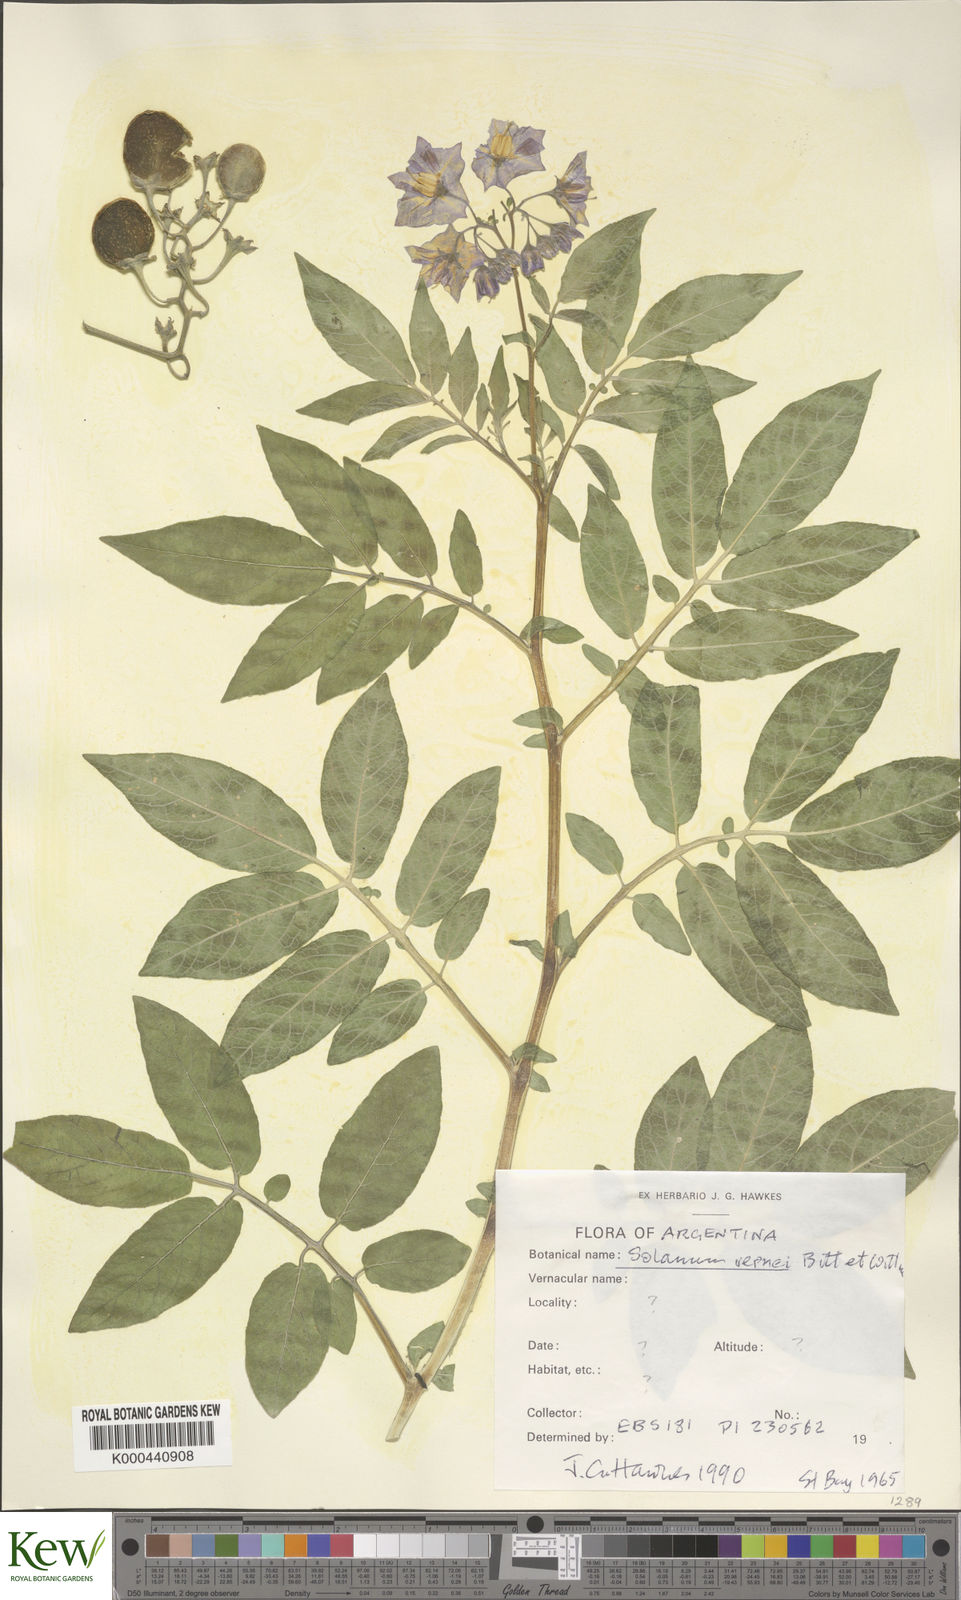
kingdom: Plantae
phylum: Tracheophyta
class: Magnoliopsida
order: Solanales
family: Solanaceae
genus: Solanum
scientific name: Solanum vernei
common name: Purple potato
